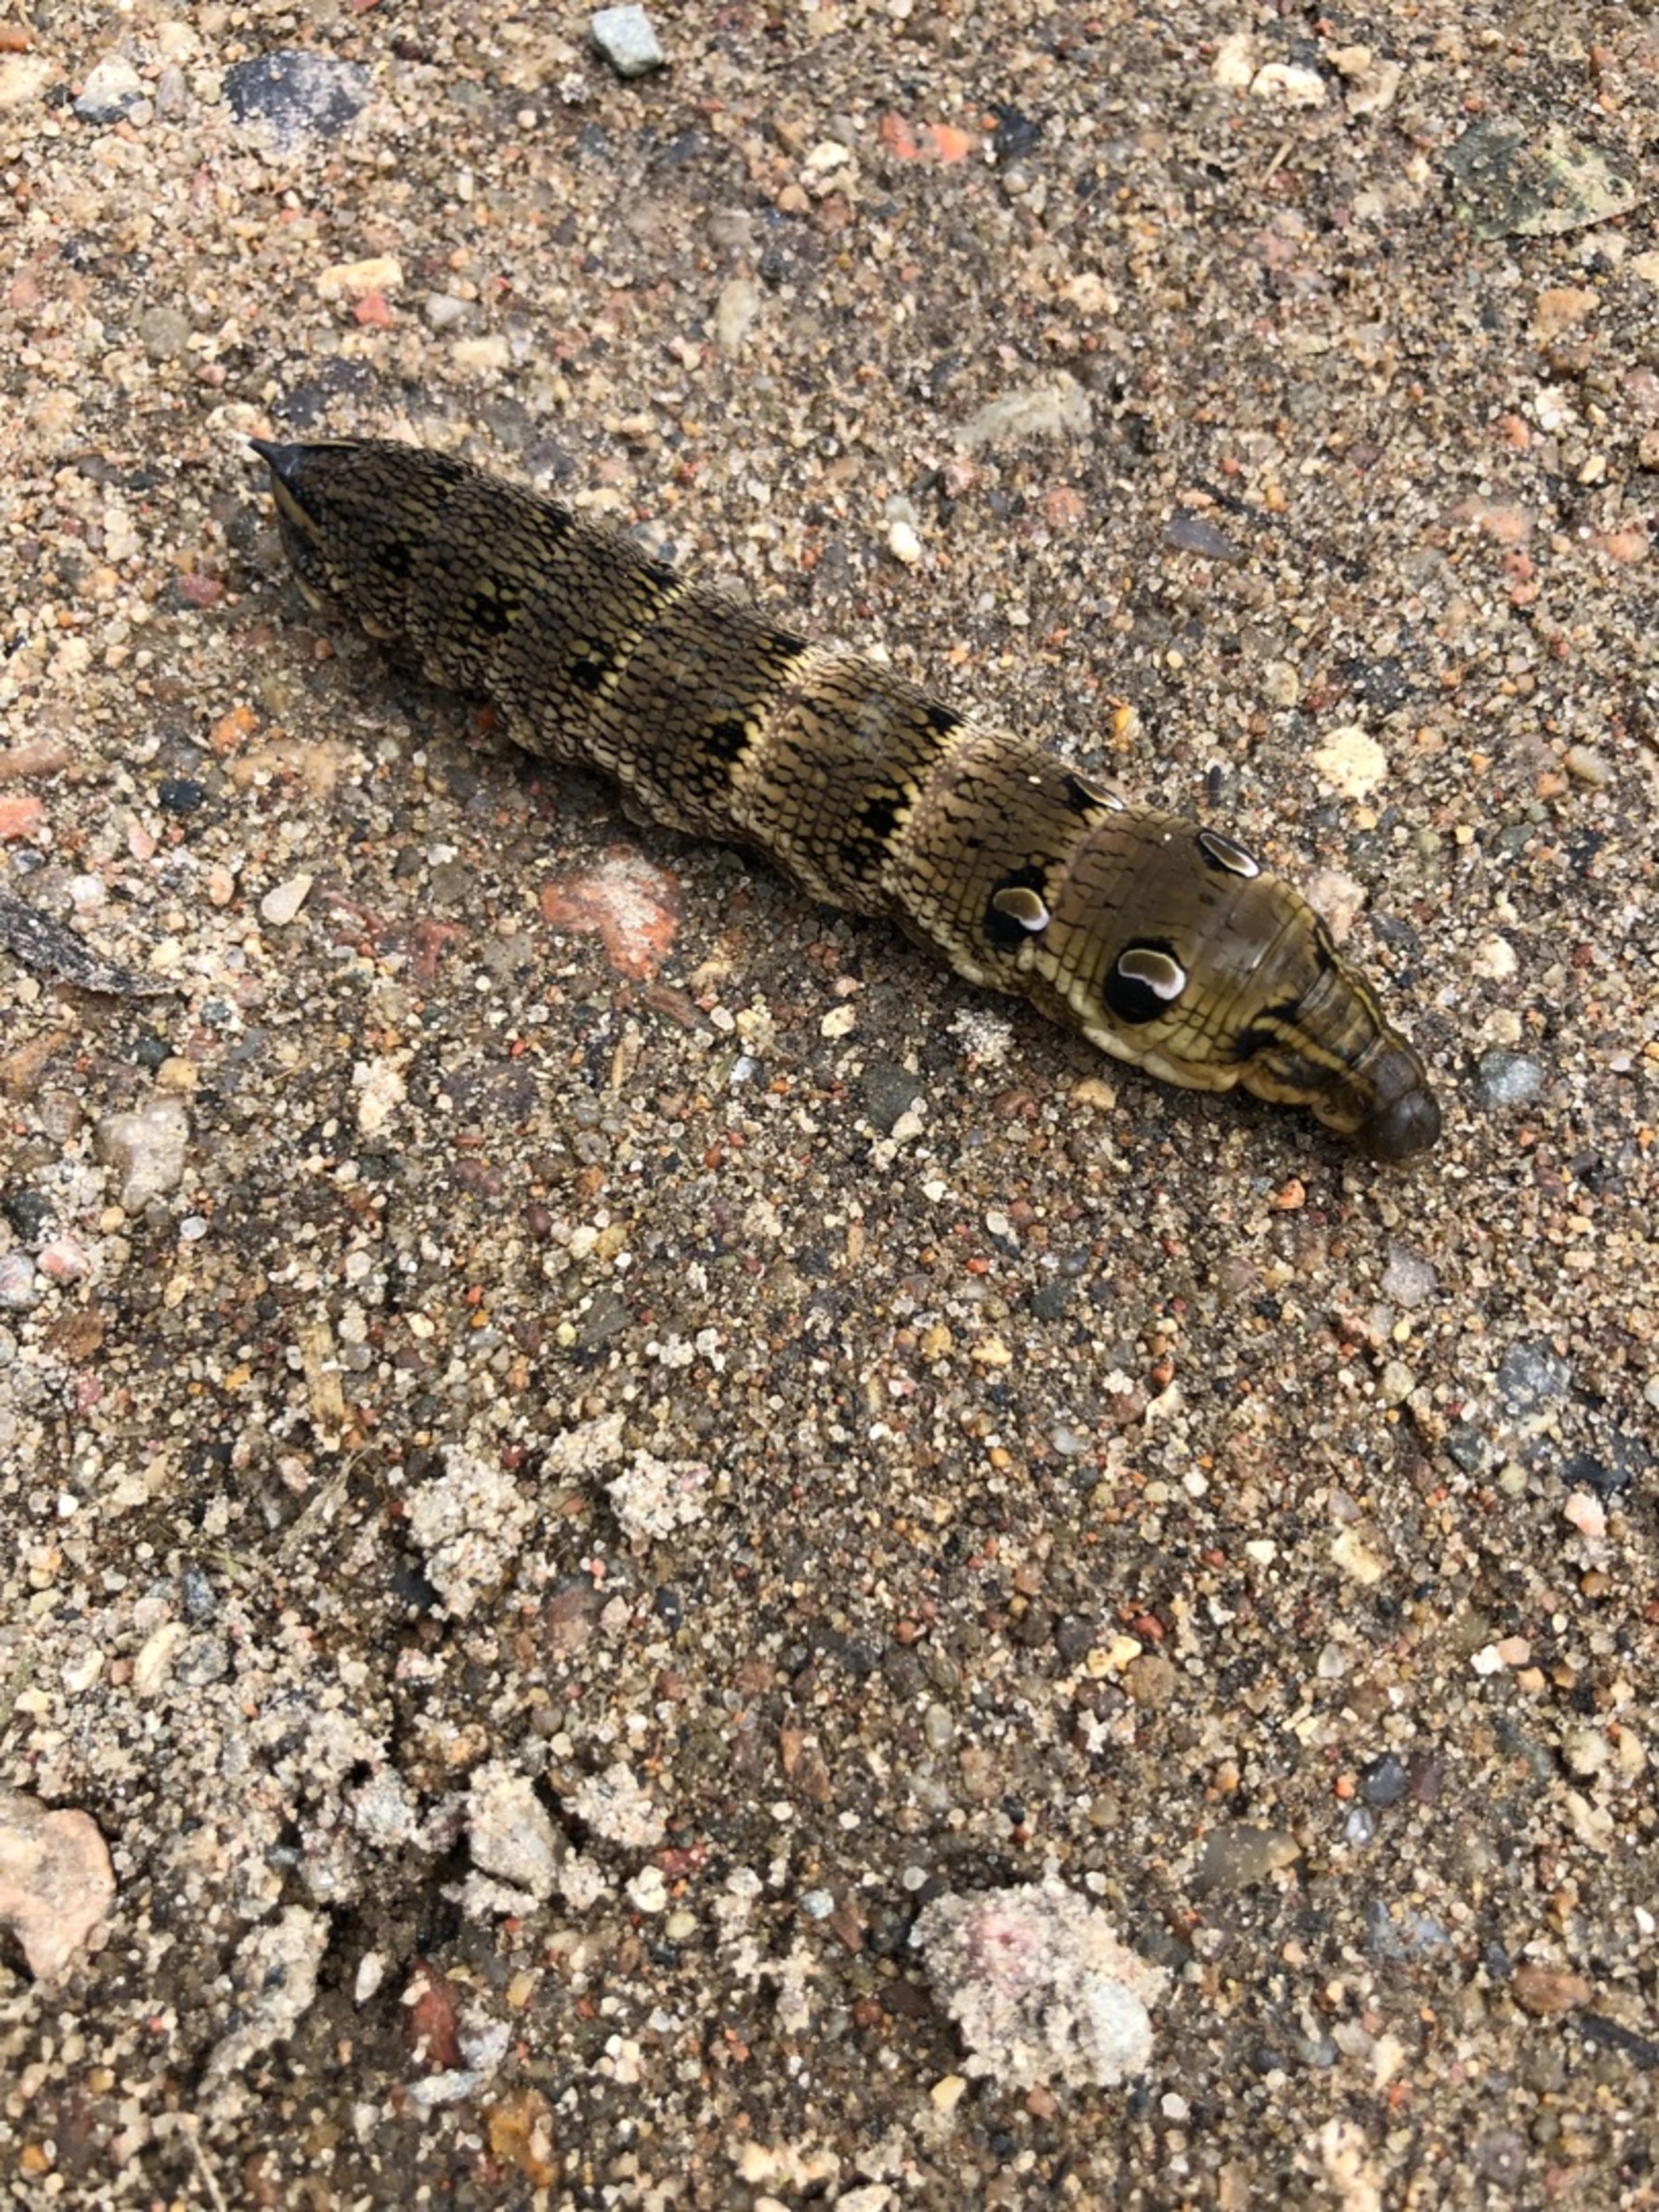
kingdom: Animalia
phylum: Arthropoda
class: Insecta
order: Lepidoptera
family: Sphingidae
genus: Deilephila
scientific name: Deilephila elpenor
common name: Dueurtsværmer
